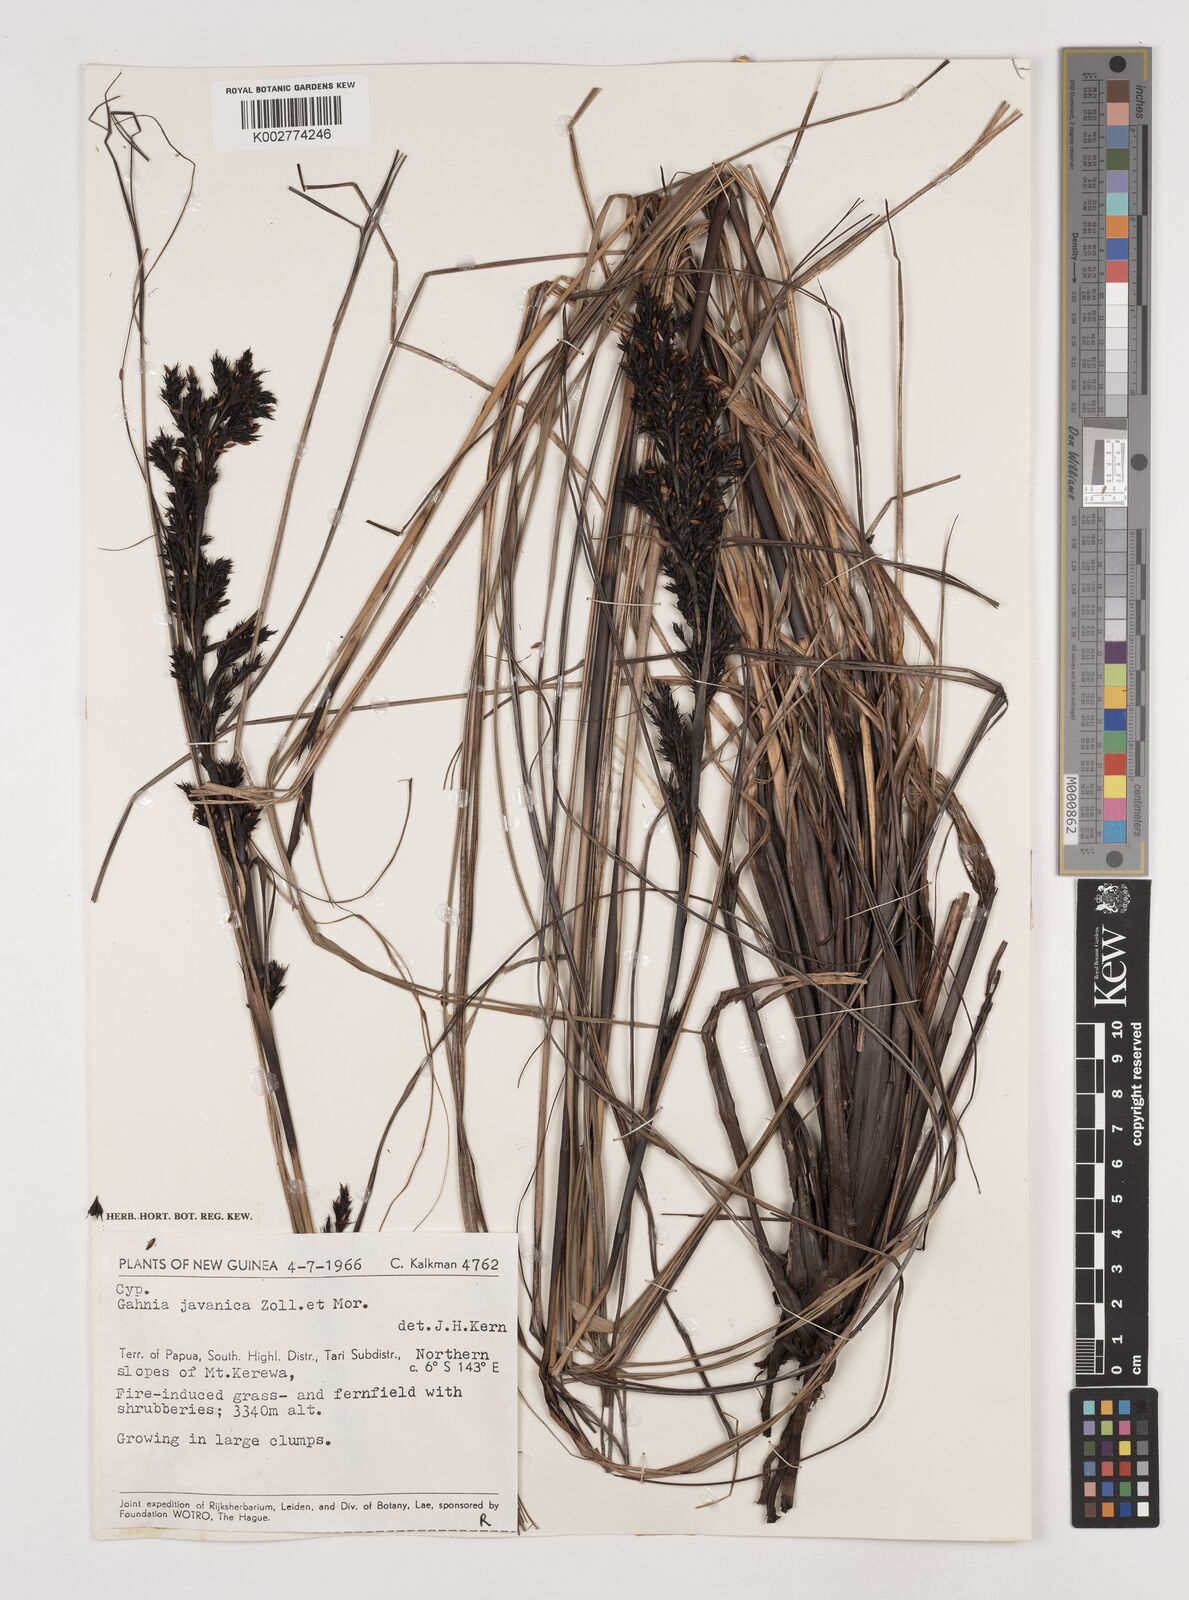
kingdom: Plantae
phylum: Tracheophyta
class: Liliopsida
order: Poales
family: Cyperaceae
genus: Gahnia
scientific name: Gahnia javanica
